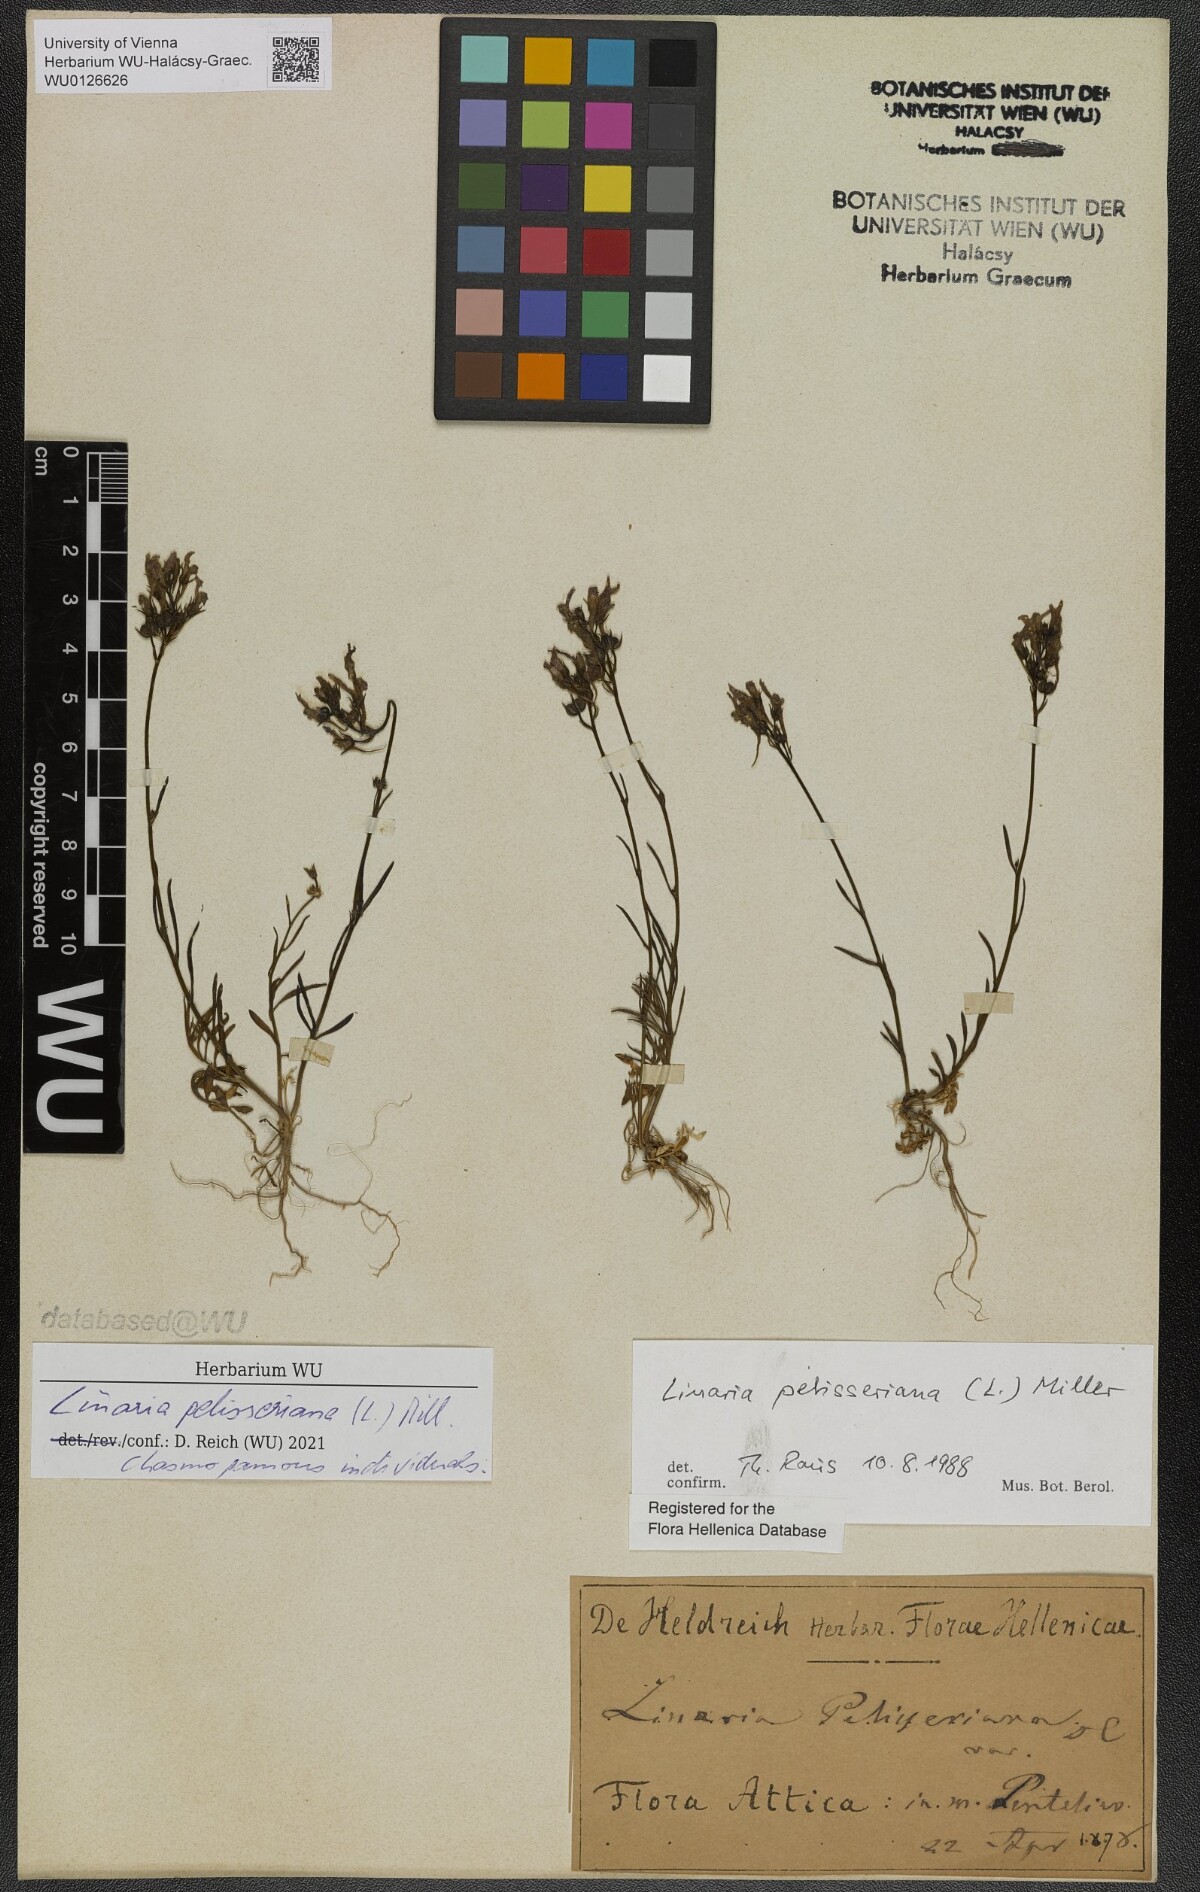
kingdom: Plantae
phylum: Tracheophyta
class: Magnoliopsida
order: Lamiales
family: Plantaginaceae
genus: Linaria
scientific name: Linaria pelisseriana
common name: Jersey toadflax
